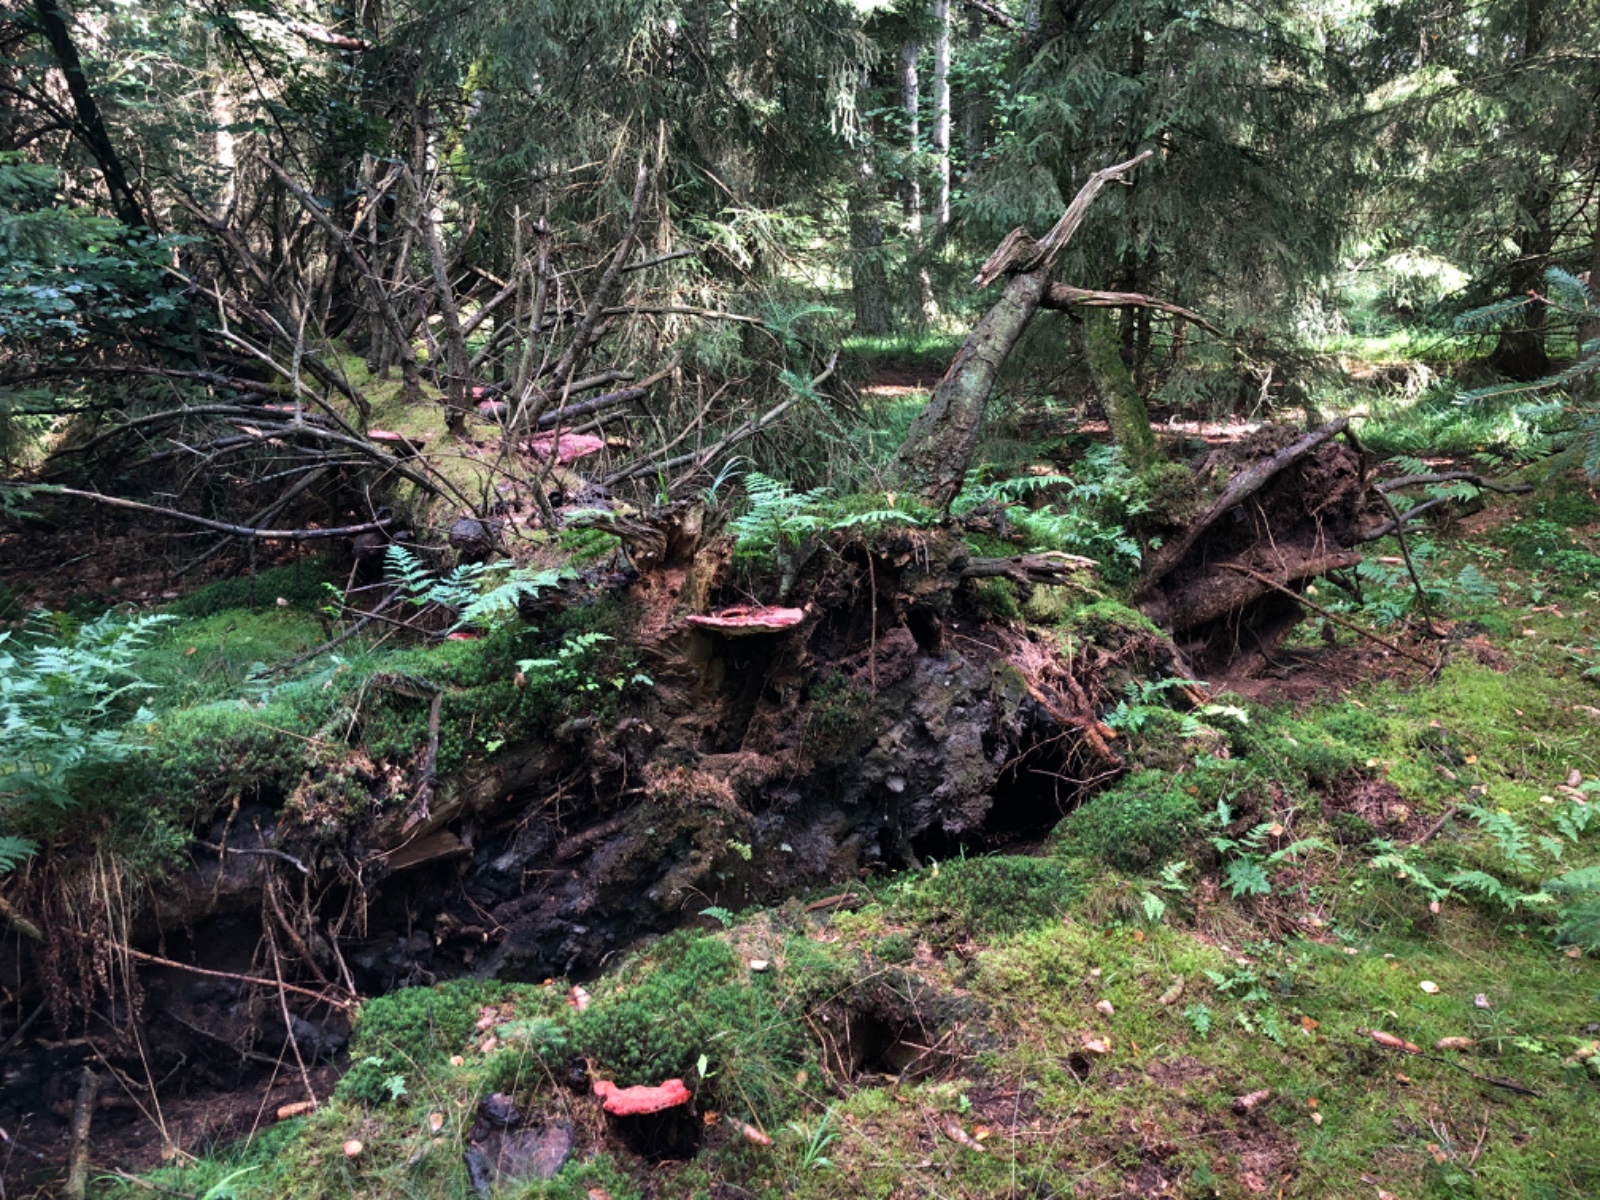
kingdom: Fungi
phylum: Basidiomycota
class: Agaricomycetes
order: Polyporales
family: Polyporaceae
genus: Ganoderma
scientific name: Ganoderma lucidum
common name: skinnende lakporesvamp
